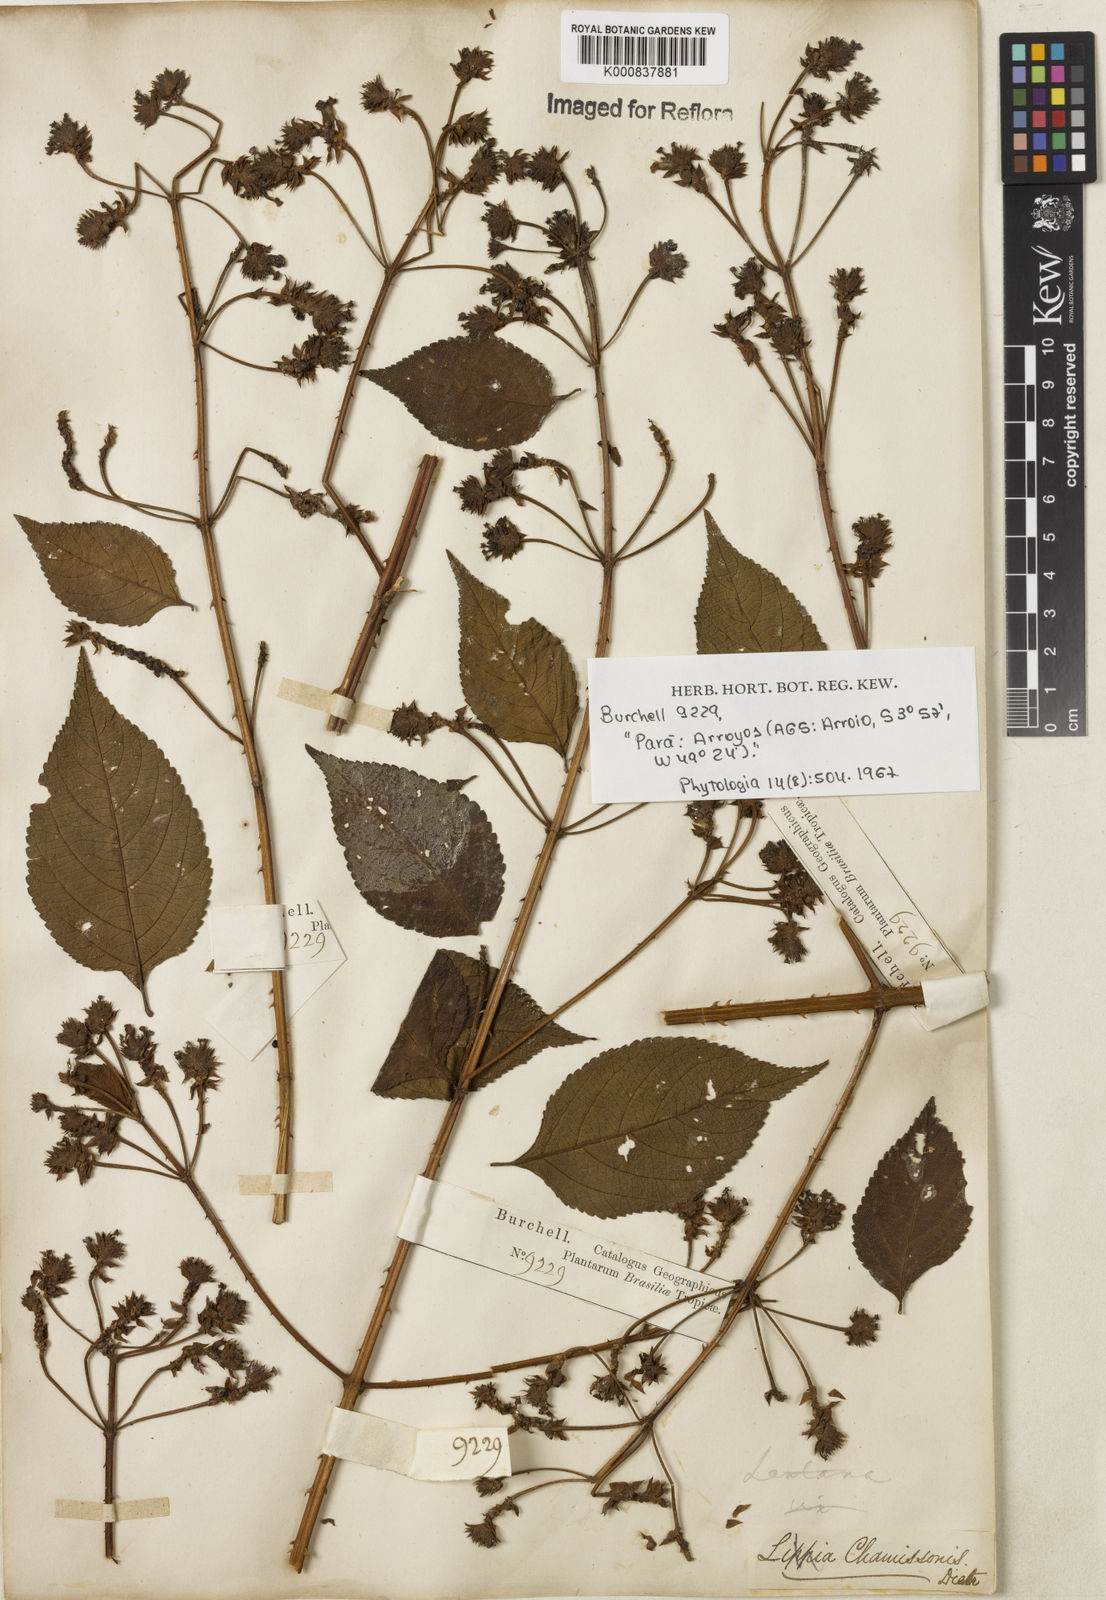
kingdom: Plantae
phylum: Tracheophyta
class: Magnoliopsida
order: Lamiales
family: Verbenaceae
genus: Lantana
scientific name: Lantana camara
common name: Lantana
